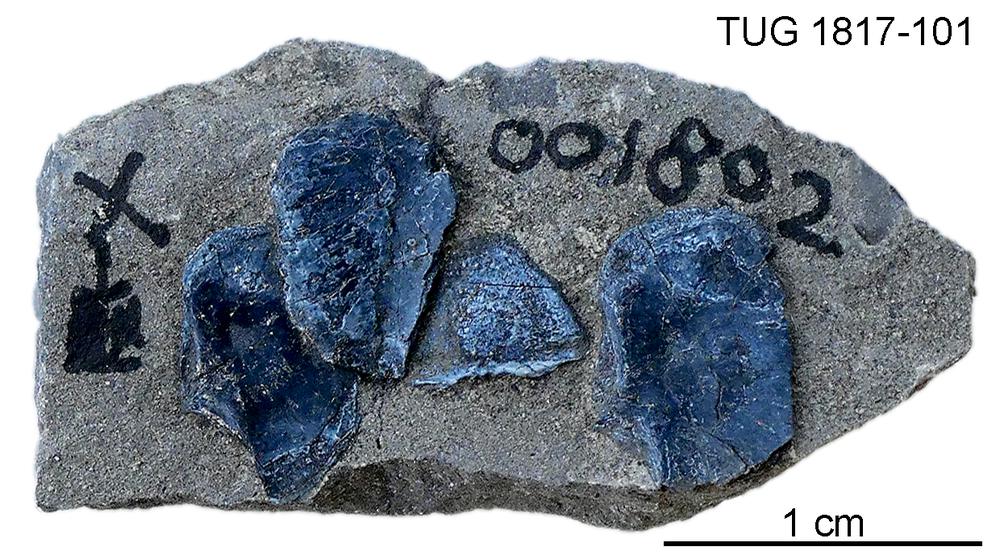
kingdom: Animalia
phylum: Chordata
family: Coccosteidae
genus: Millerosteus
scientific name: Millerosteus minor
